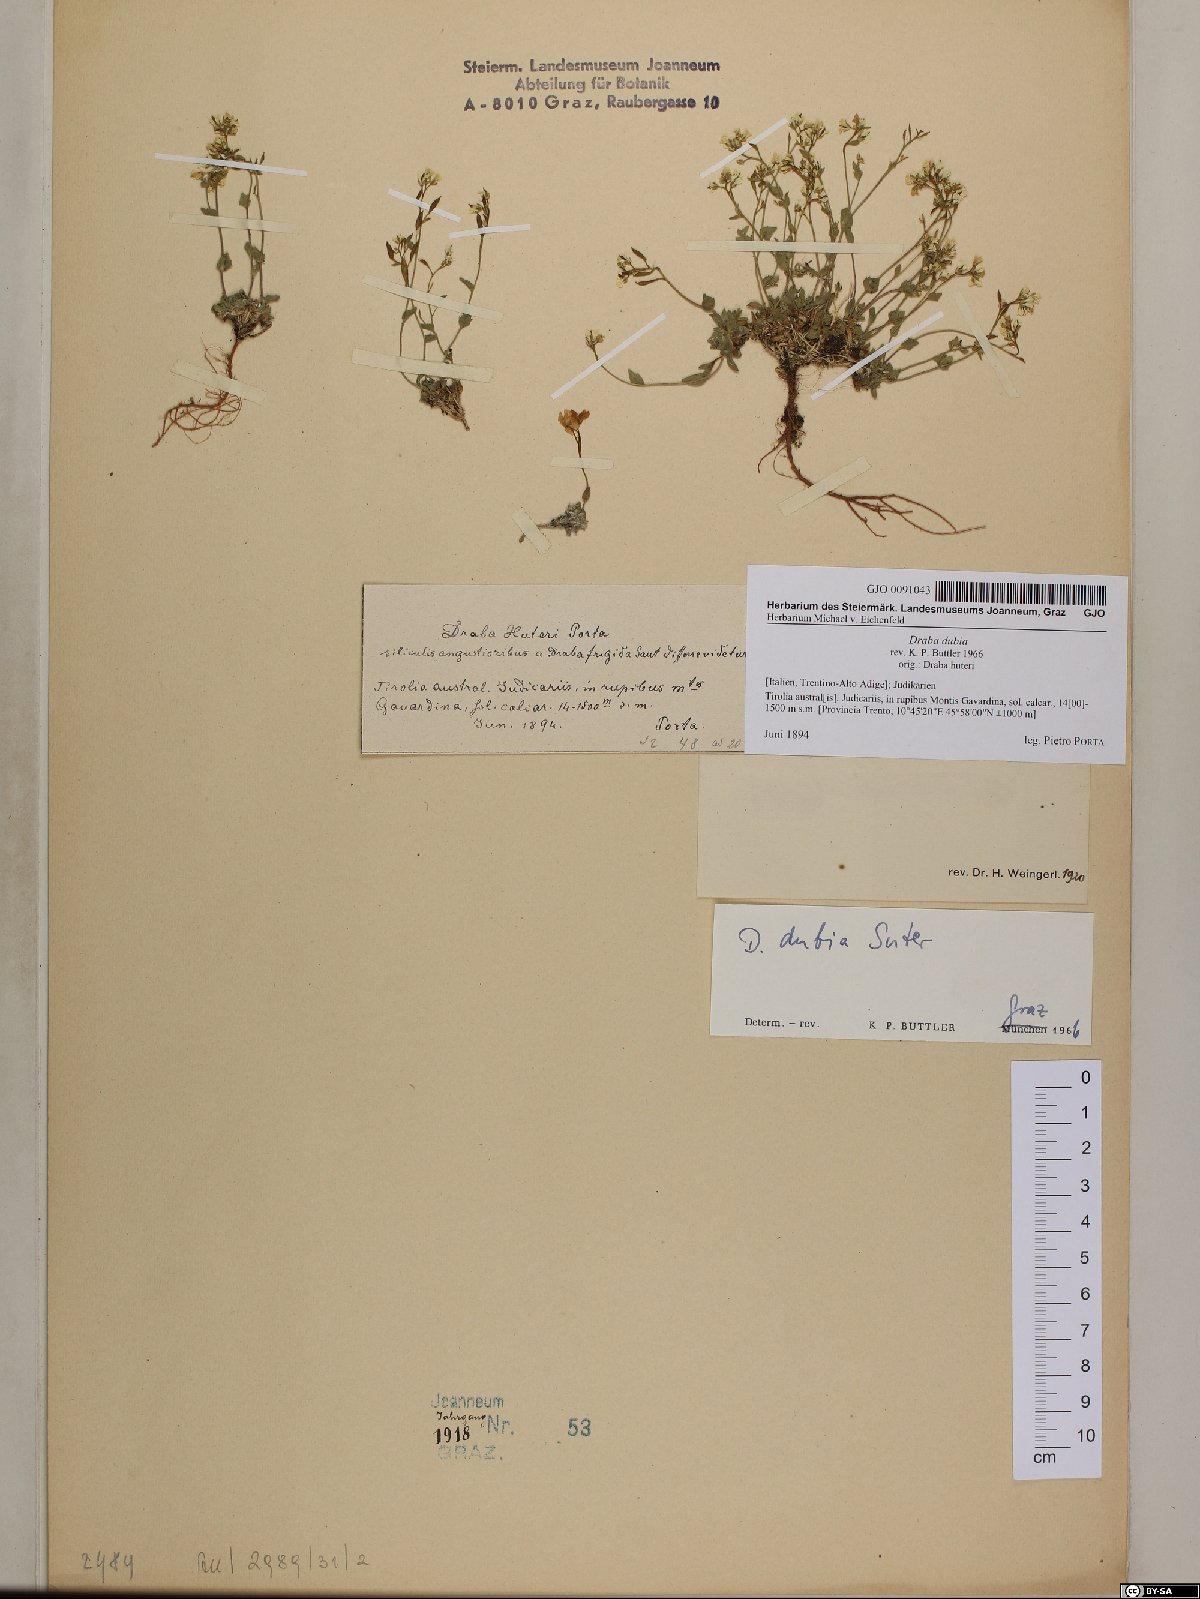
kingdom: Plantae
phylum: Tracheophyta
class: Magnoliopsida
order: Brassicales
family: Brassicaceae
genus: Draba
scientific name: Draba dubia
